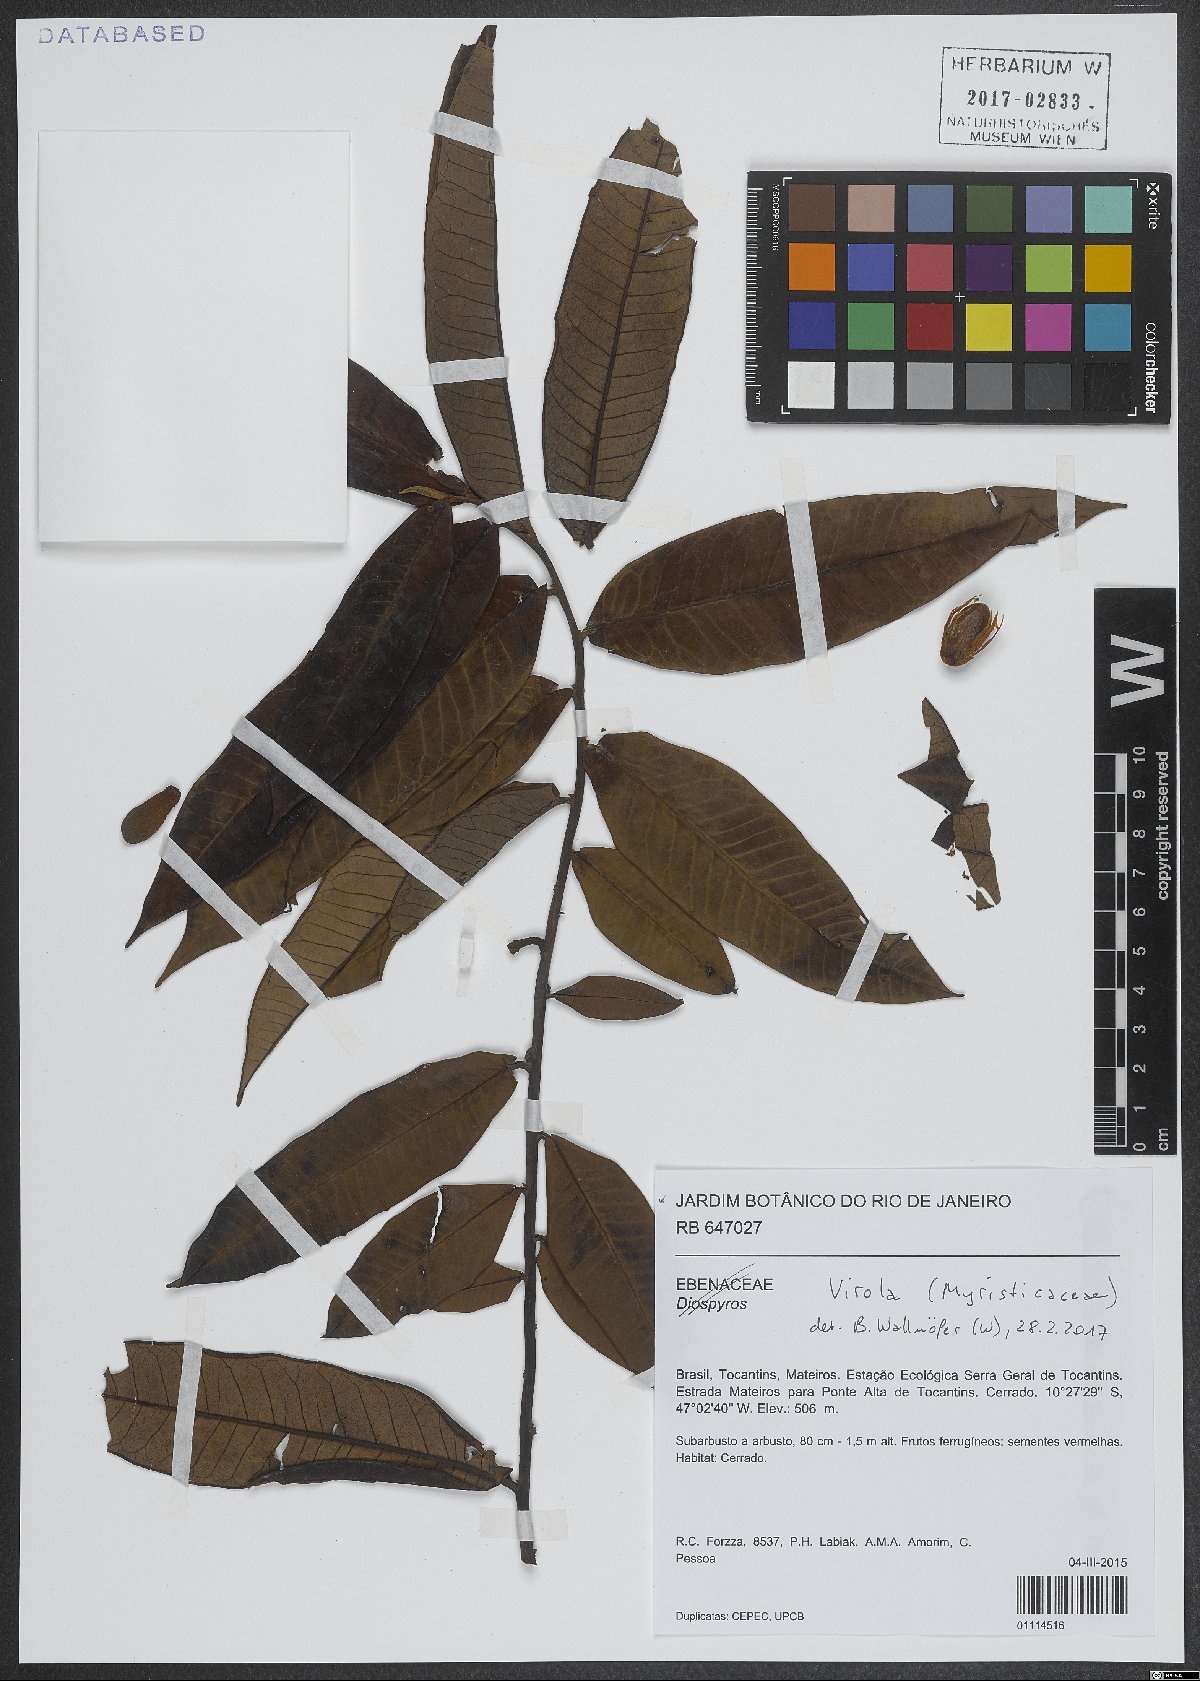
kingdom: Plantae
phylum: Tracheophyta
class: Magnoliopsida
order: Magnoliales
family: Myristicaceae
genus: Virola
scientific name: Virola
